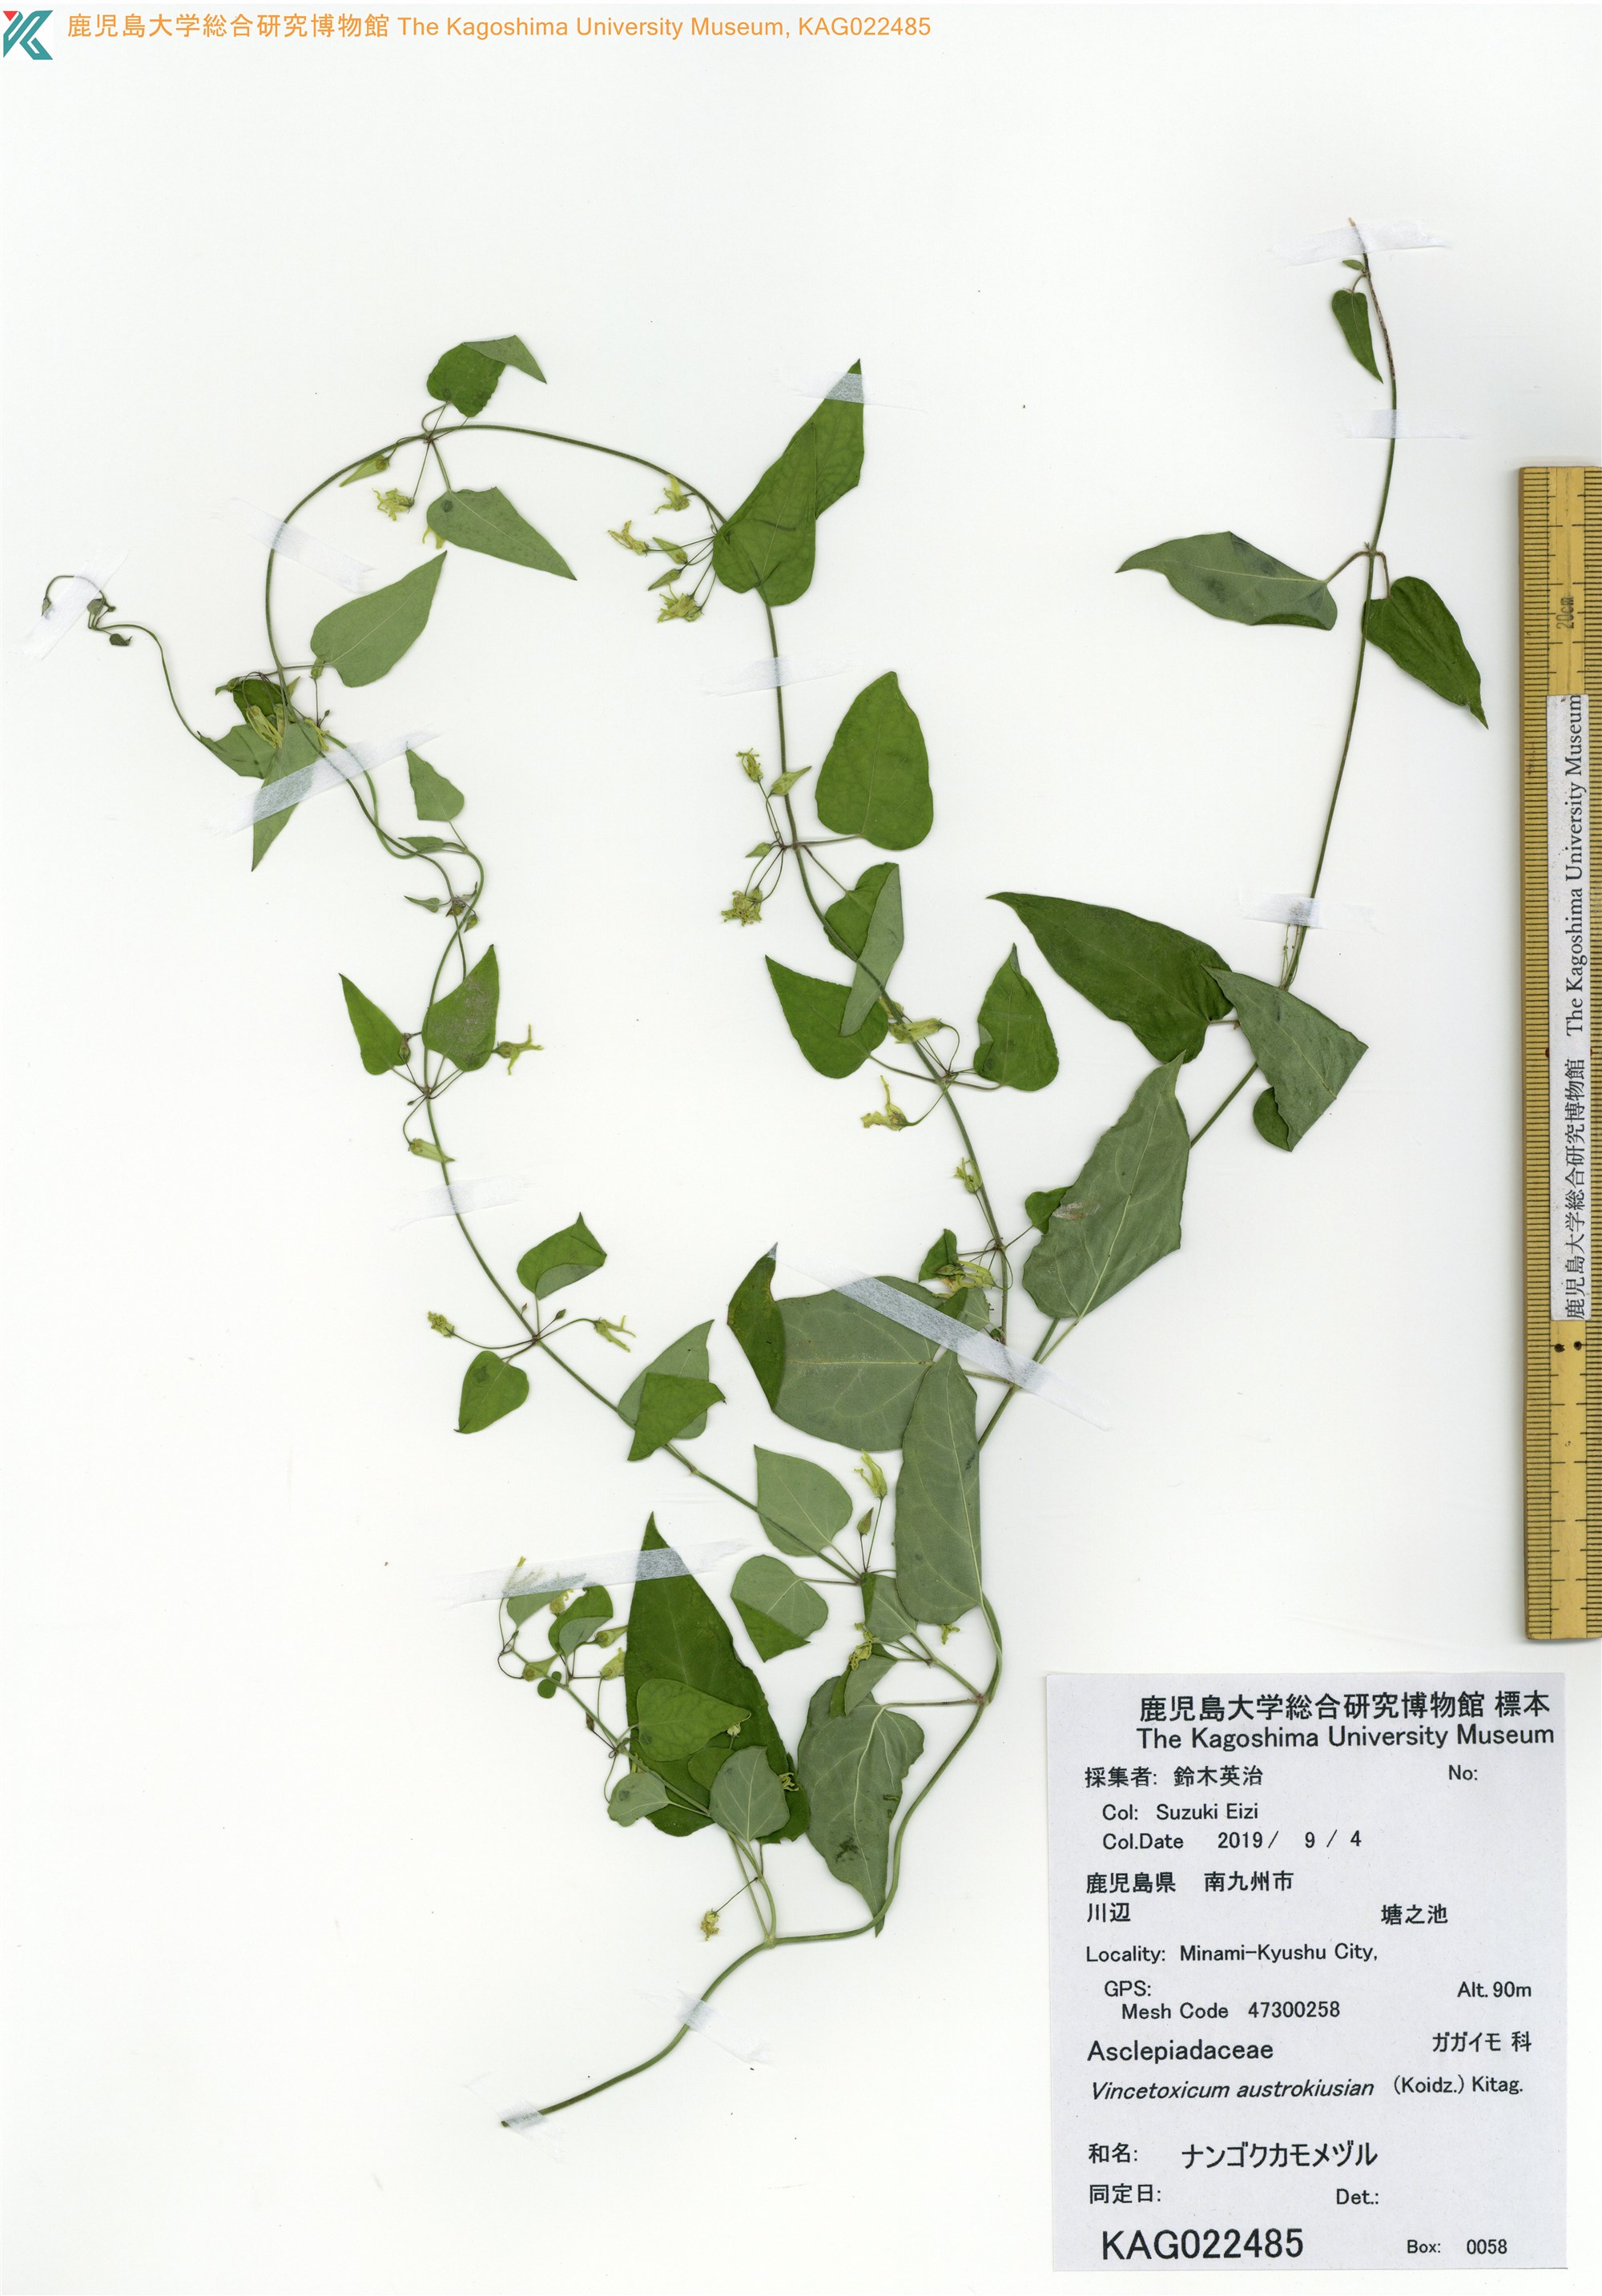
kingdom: Plantae
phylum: Tracheophyta
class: Magnoliopsida
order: Gentianales
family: Apocynaceae
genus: Vincetoxicum
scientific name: Vincetoxicum austrokiusianum
